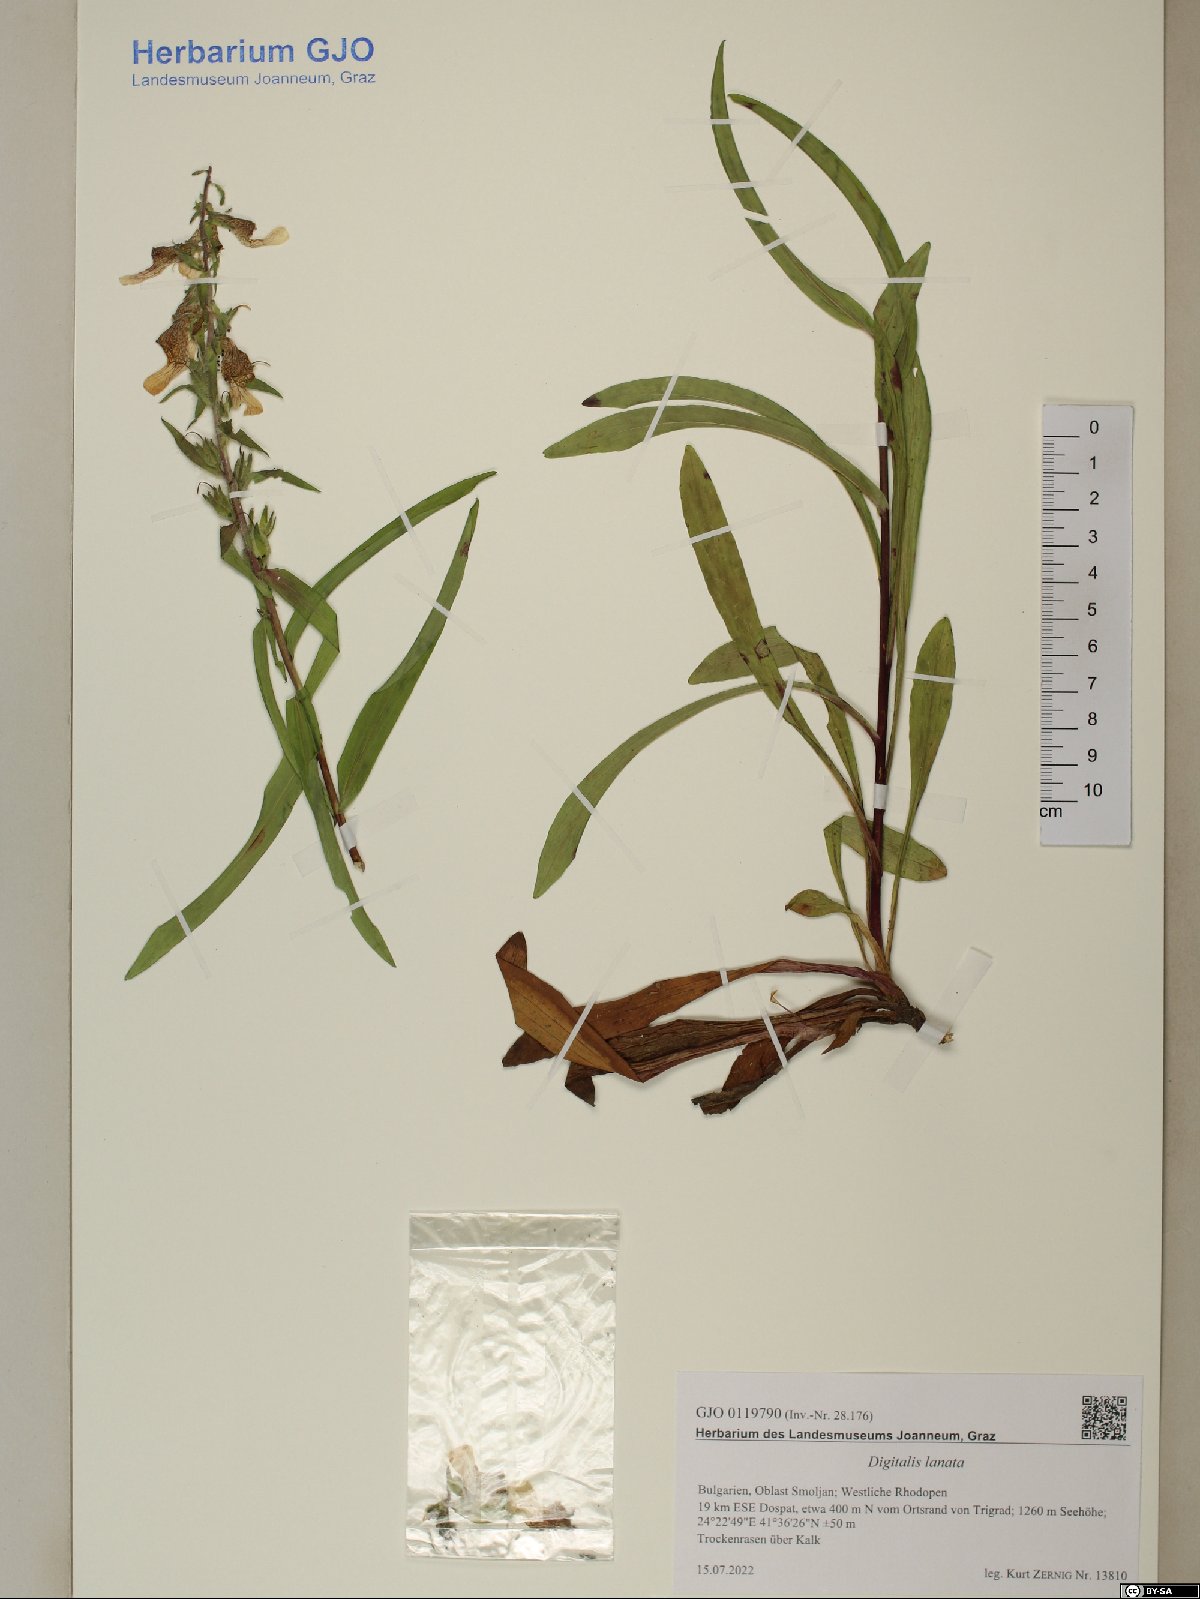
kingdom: Plantae
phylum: Tracheophyta
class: Magnoliopsida
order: Lamiales
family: Plantaginaceae
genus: Digitalis
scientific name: Digitalis lanata
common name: Grecian foxglove
